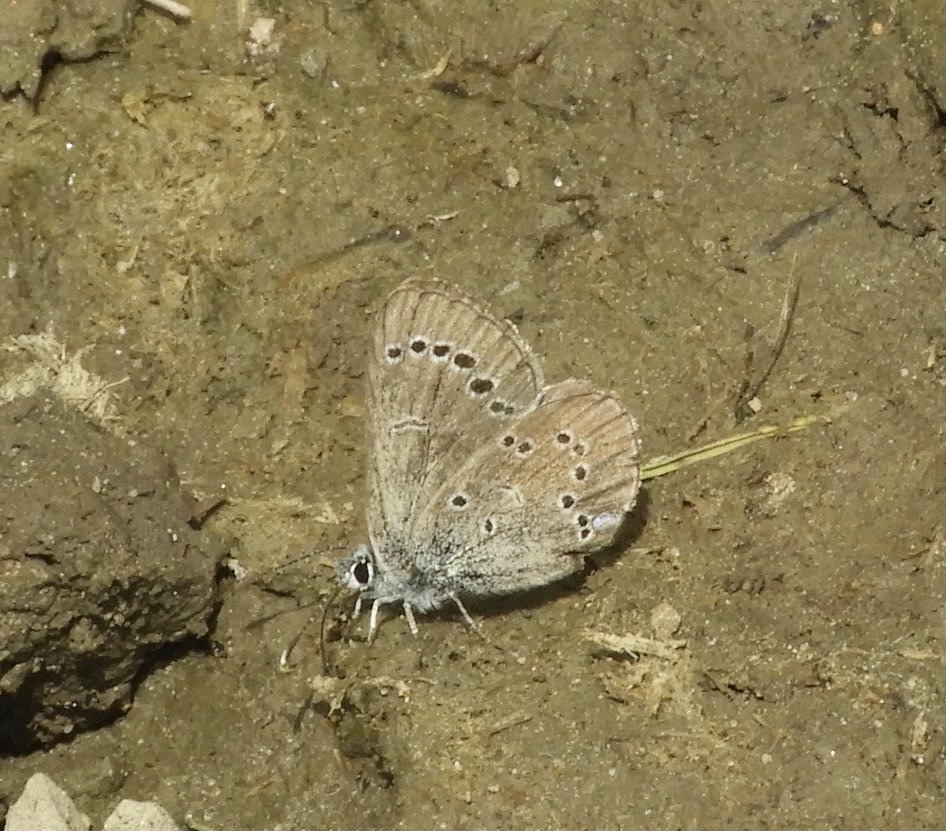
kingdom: Animalia
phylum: Arthropoda
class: Insecta
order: Lepidoptera
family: Lycaenidae
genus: Glaucopsyche
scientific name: Glaucopsyche lygdamus
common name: Silvery Blue
